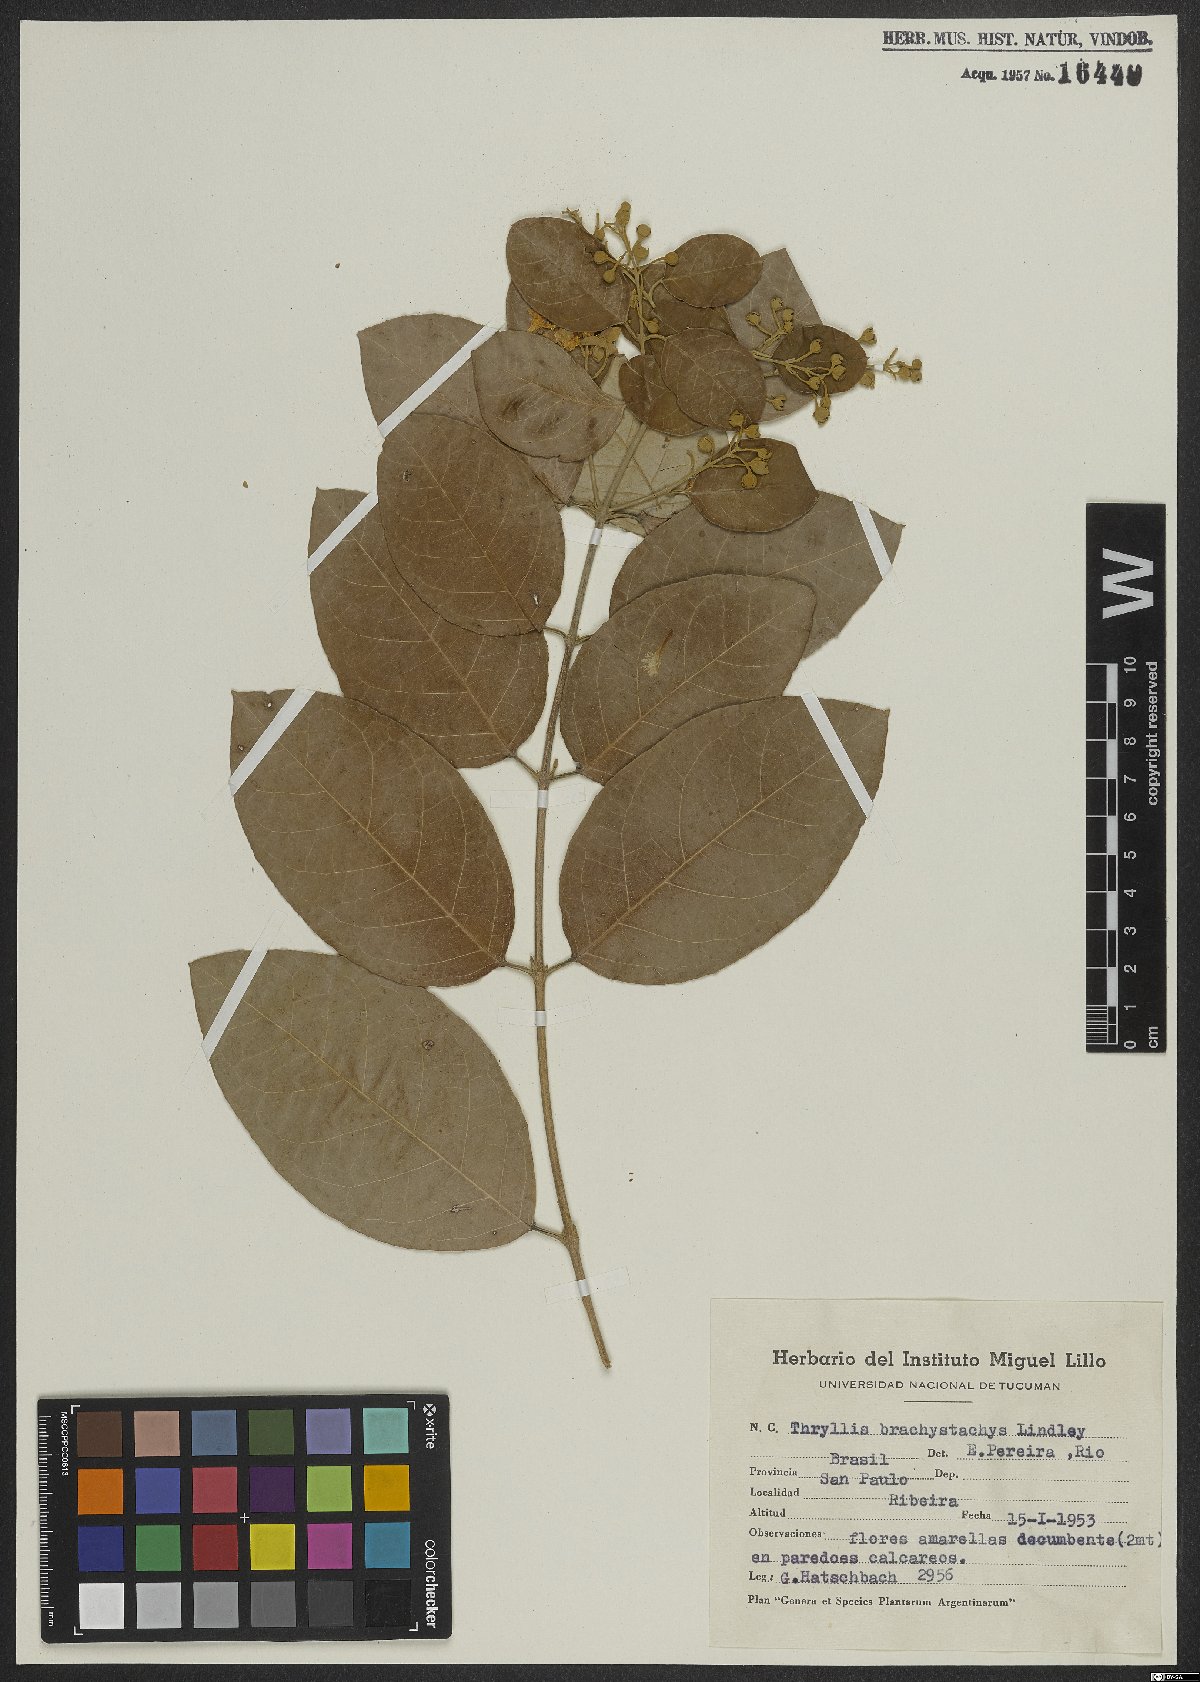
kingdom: Plantae
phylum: Tracheophyta
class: Magnoliopsida
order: Malpighiales
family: Malpighiaceae
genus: Thryallis
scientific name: Thryallis laburnum
